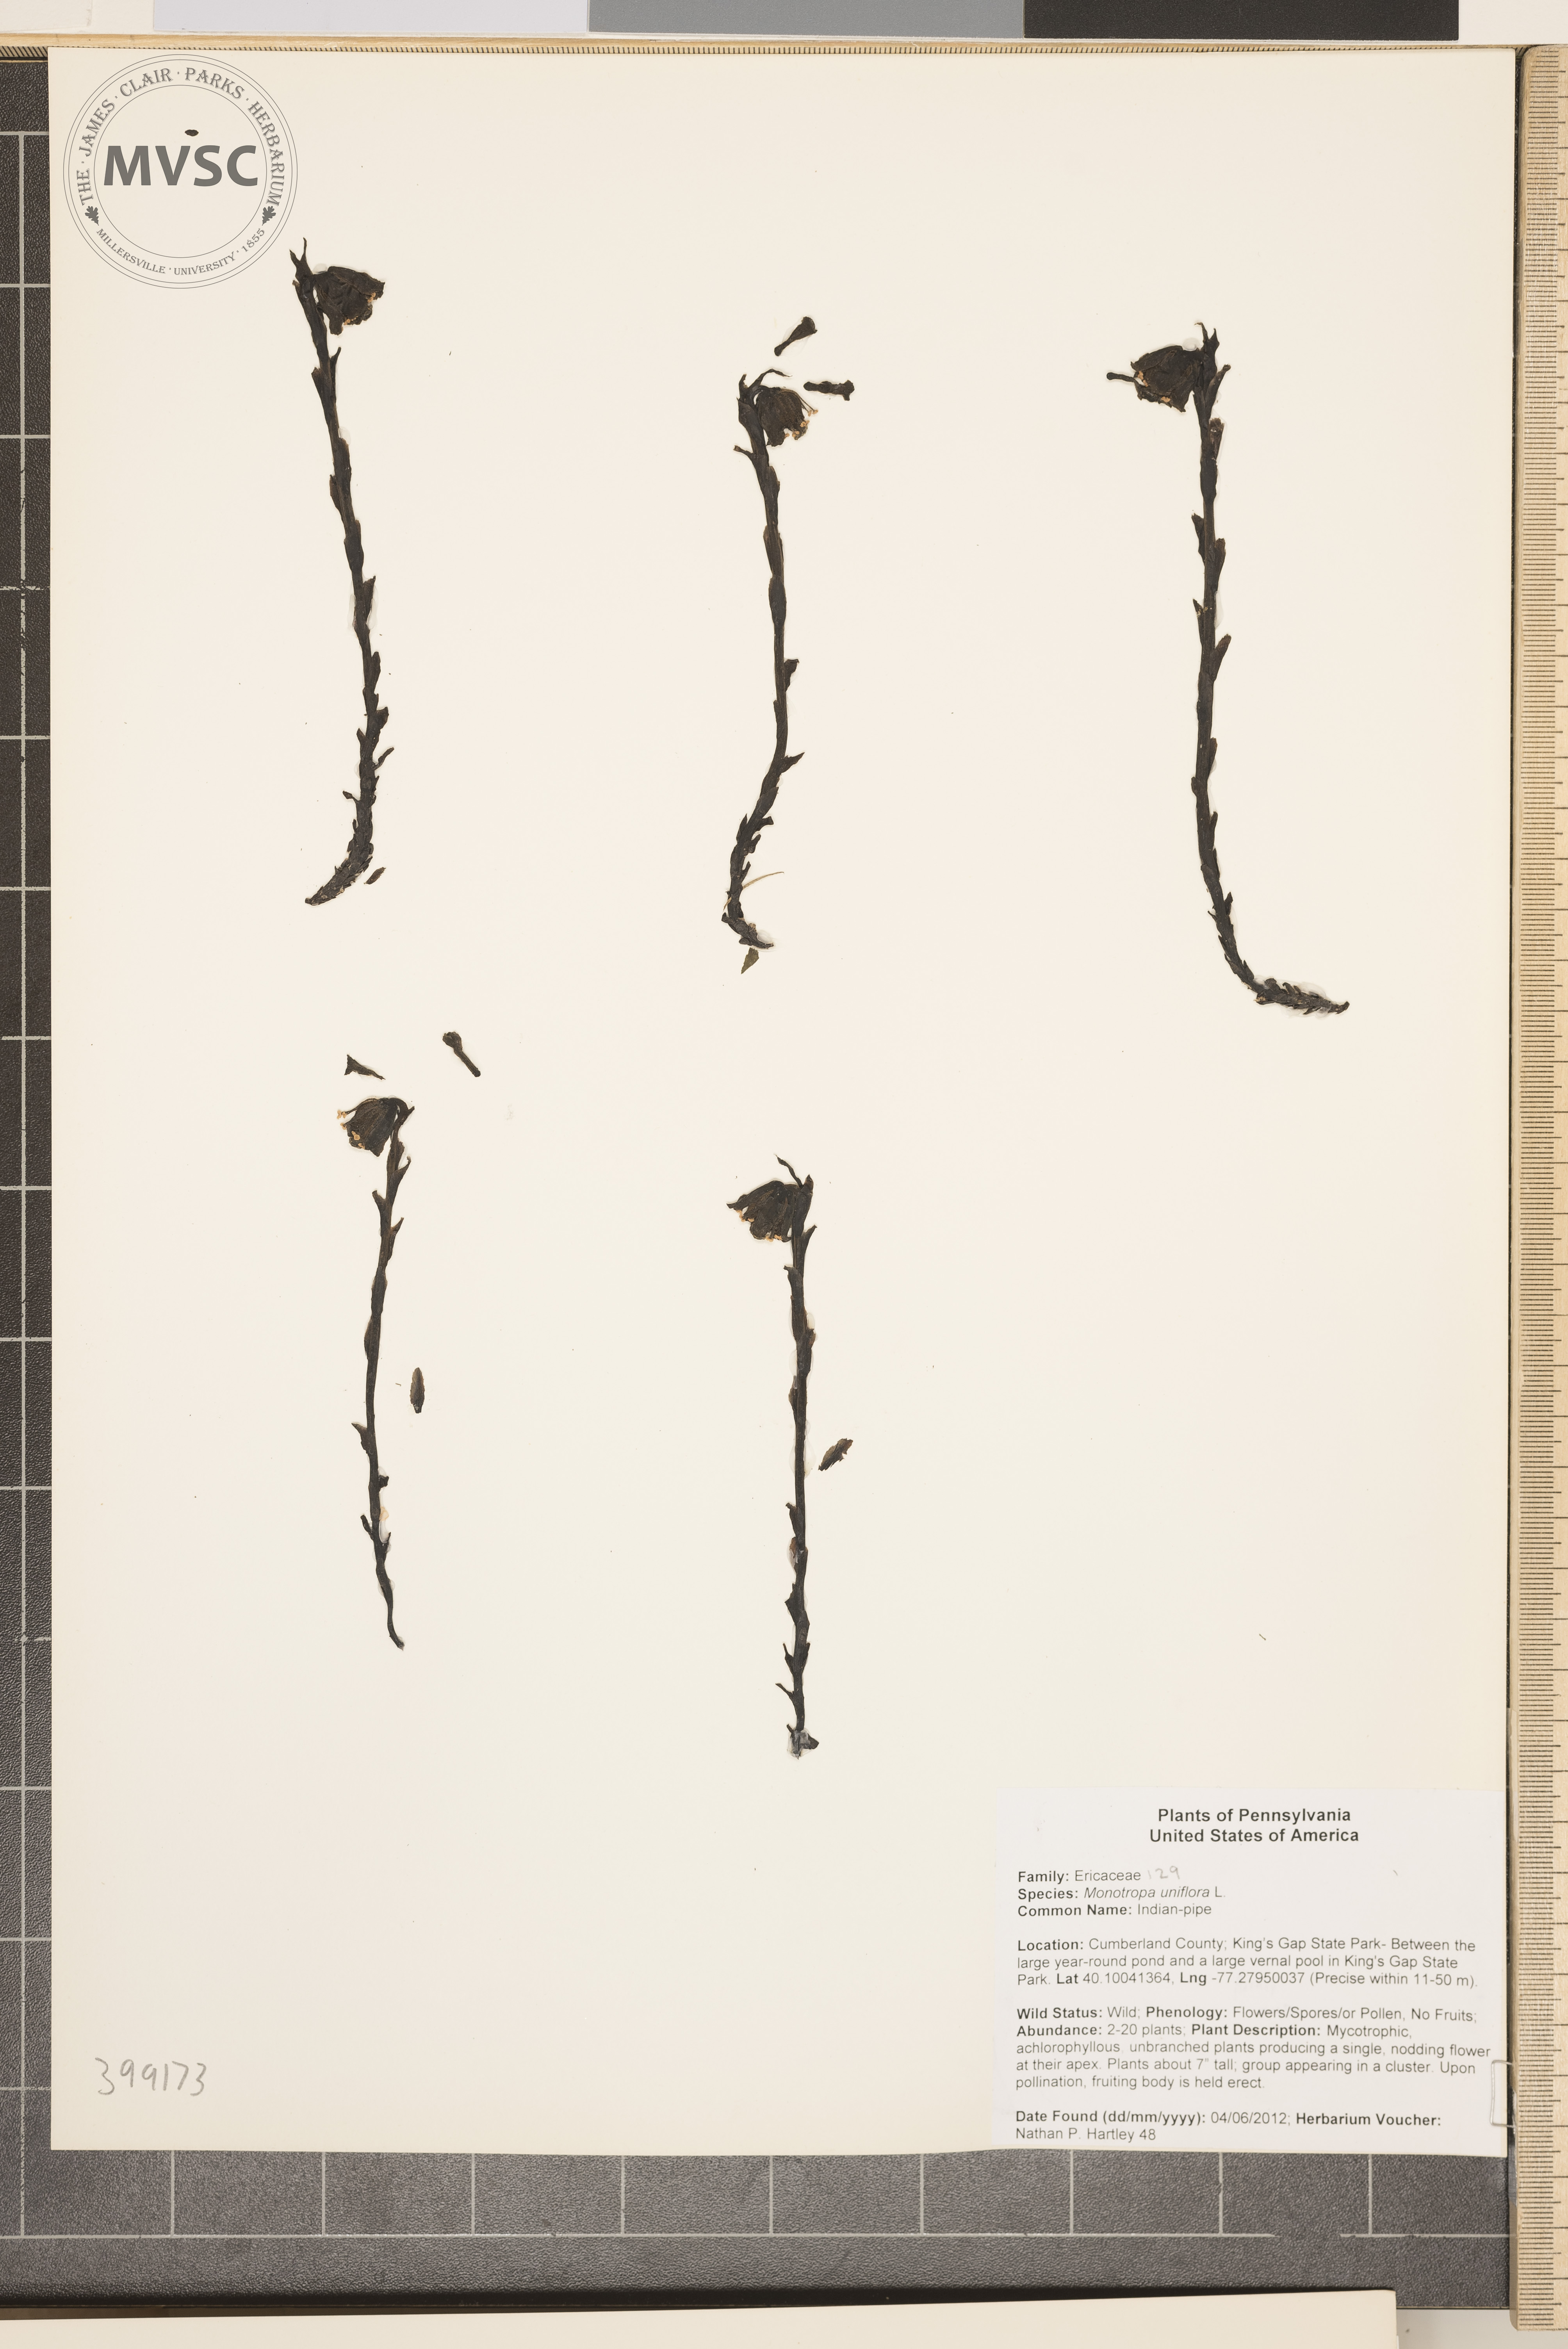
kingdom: Plantae
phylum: Tracheophyta
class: Magnoliopsida
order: Ericales
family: Ericaceae
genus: Monotropa
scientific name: Monotropa uniflora
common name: Indian-pipe
